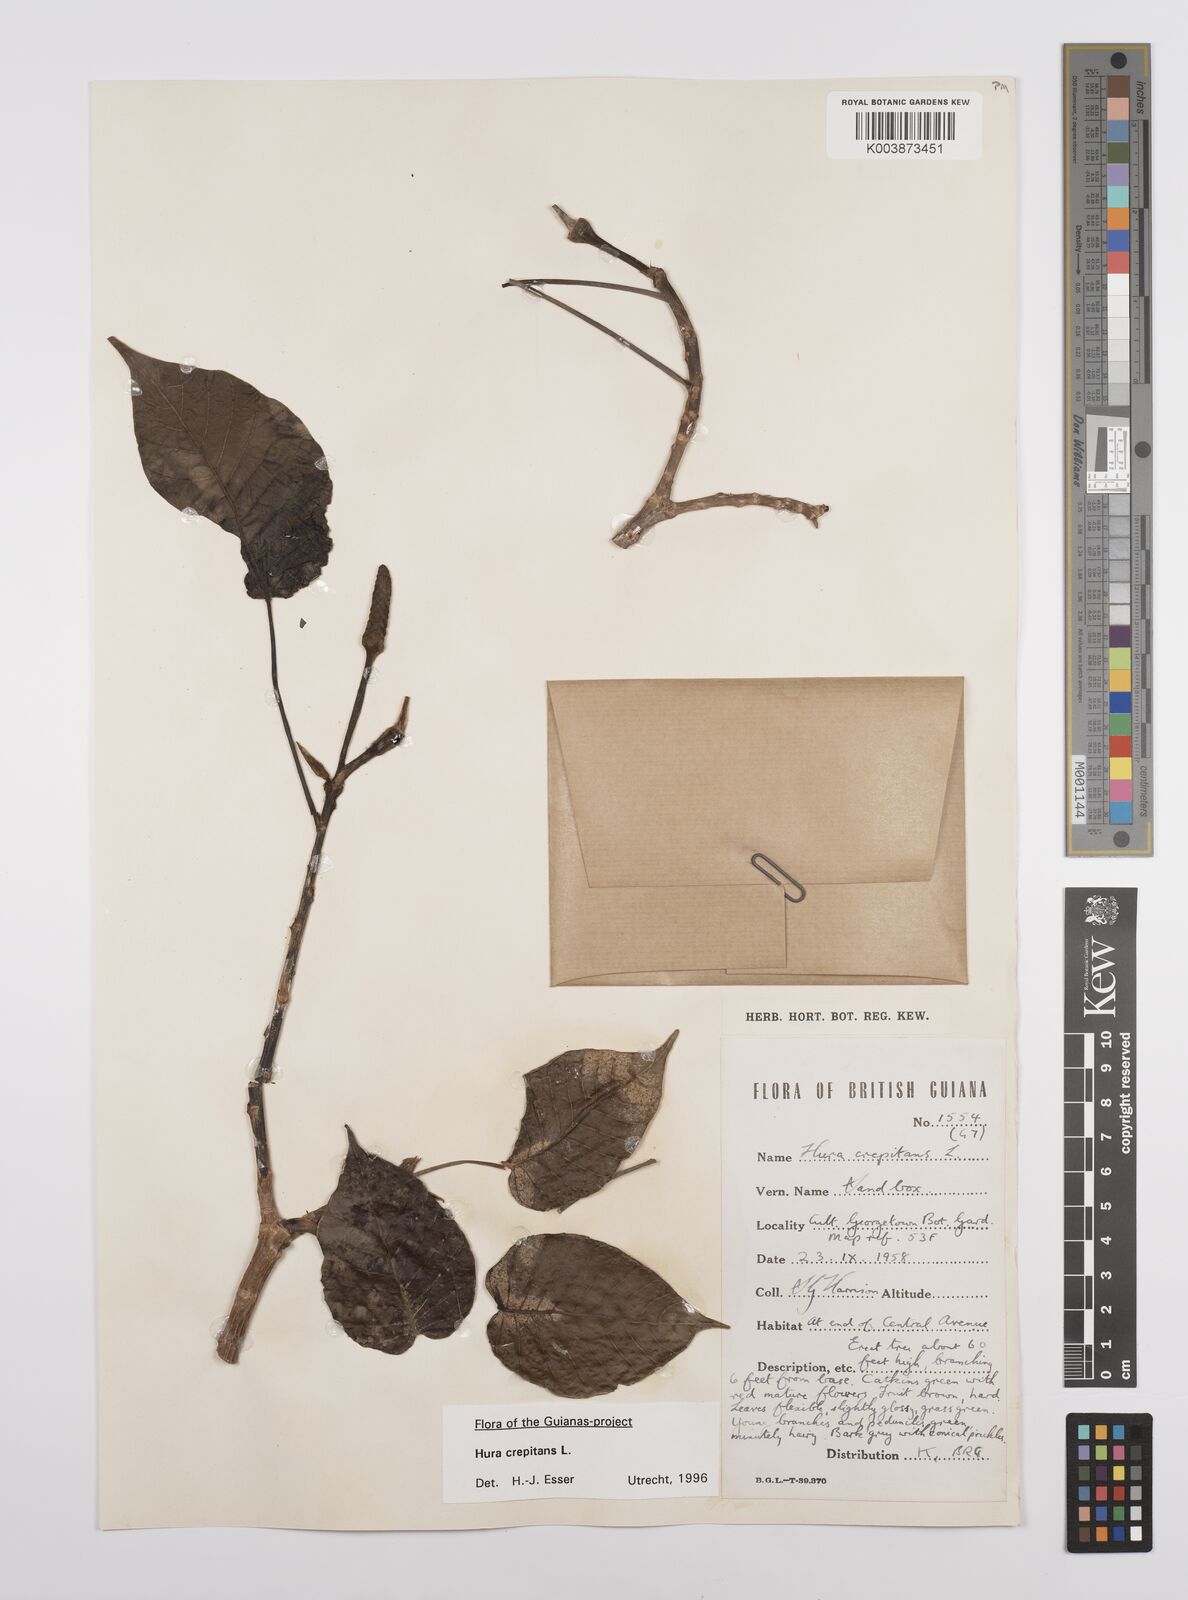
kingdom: Plantae
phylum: Tracheophyta
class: Magnoliopsida
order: Malpighiales
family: Euphorbiaceae
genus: Hura
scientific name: Hura crepitans
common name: Sandboxtree
